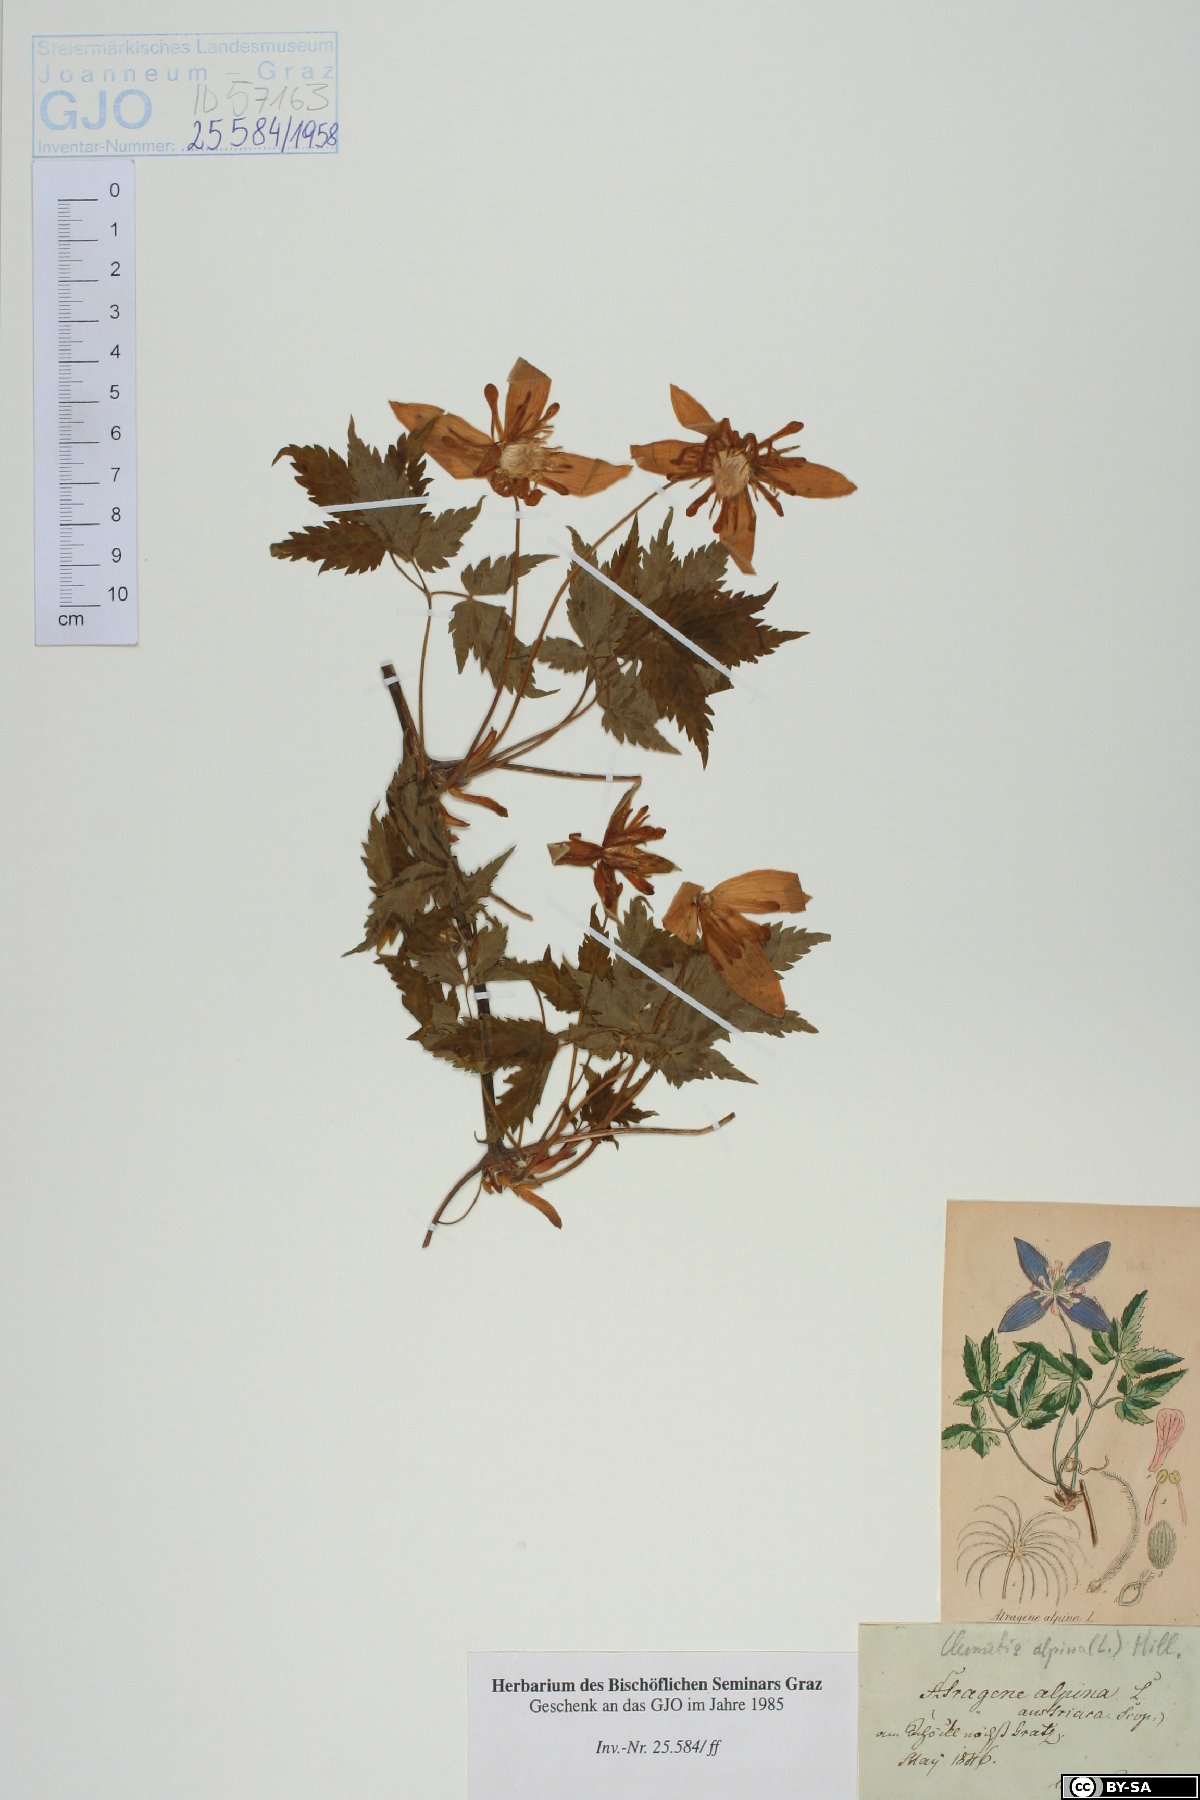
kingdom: Plantae
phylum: Tracheophyta
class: Magnoliopsida
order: Ranunculales
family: Ranunculaceae
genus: Clematis
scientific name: Clematis alpina
